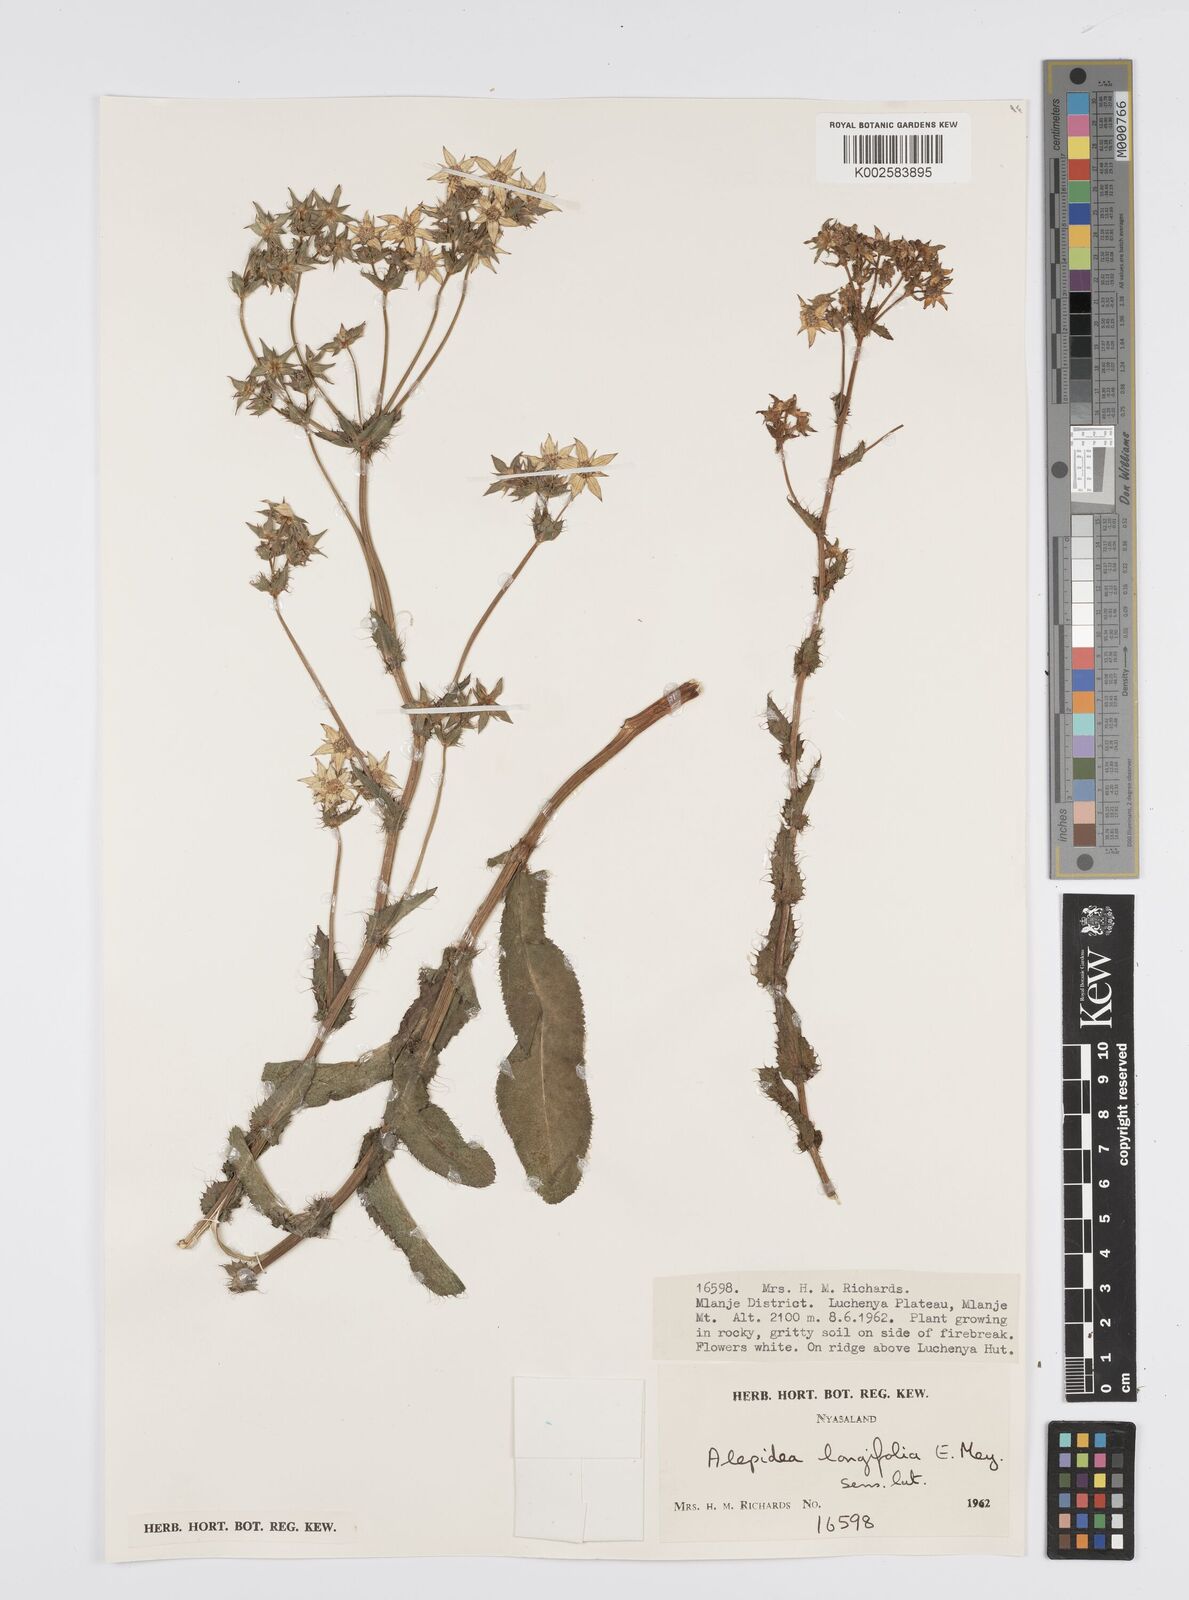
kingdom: Plantae
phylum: Tracheophyta
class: Magnoliopsida
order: Apiales
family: Apiaceae
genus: Alepidea
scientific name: Alepidea
